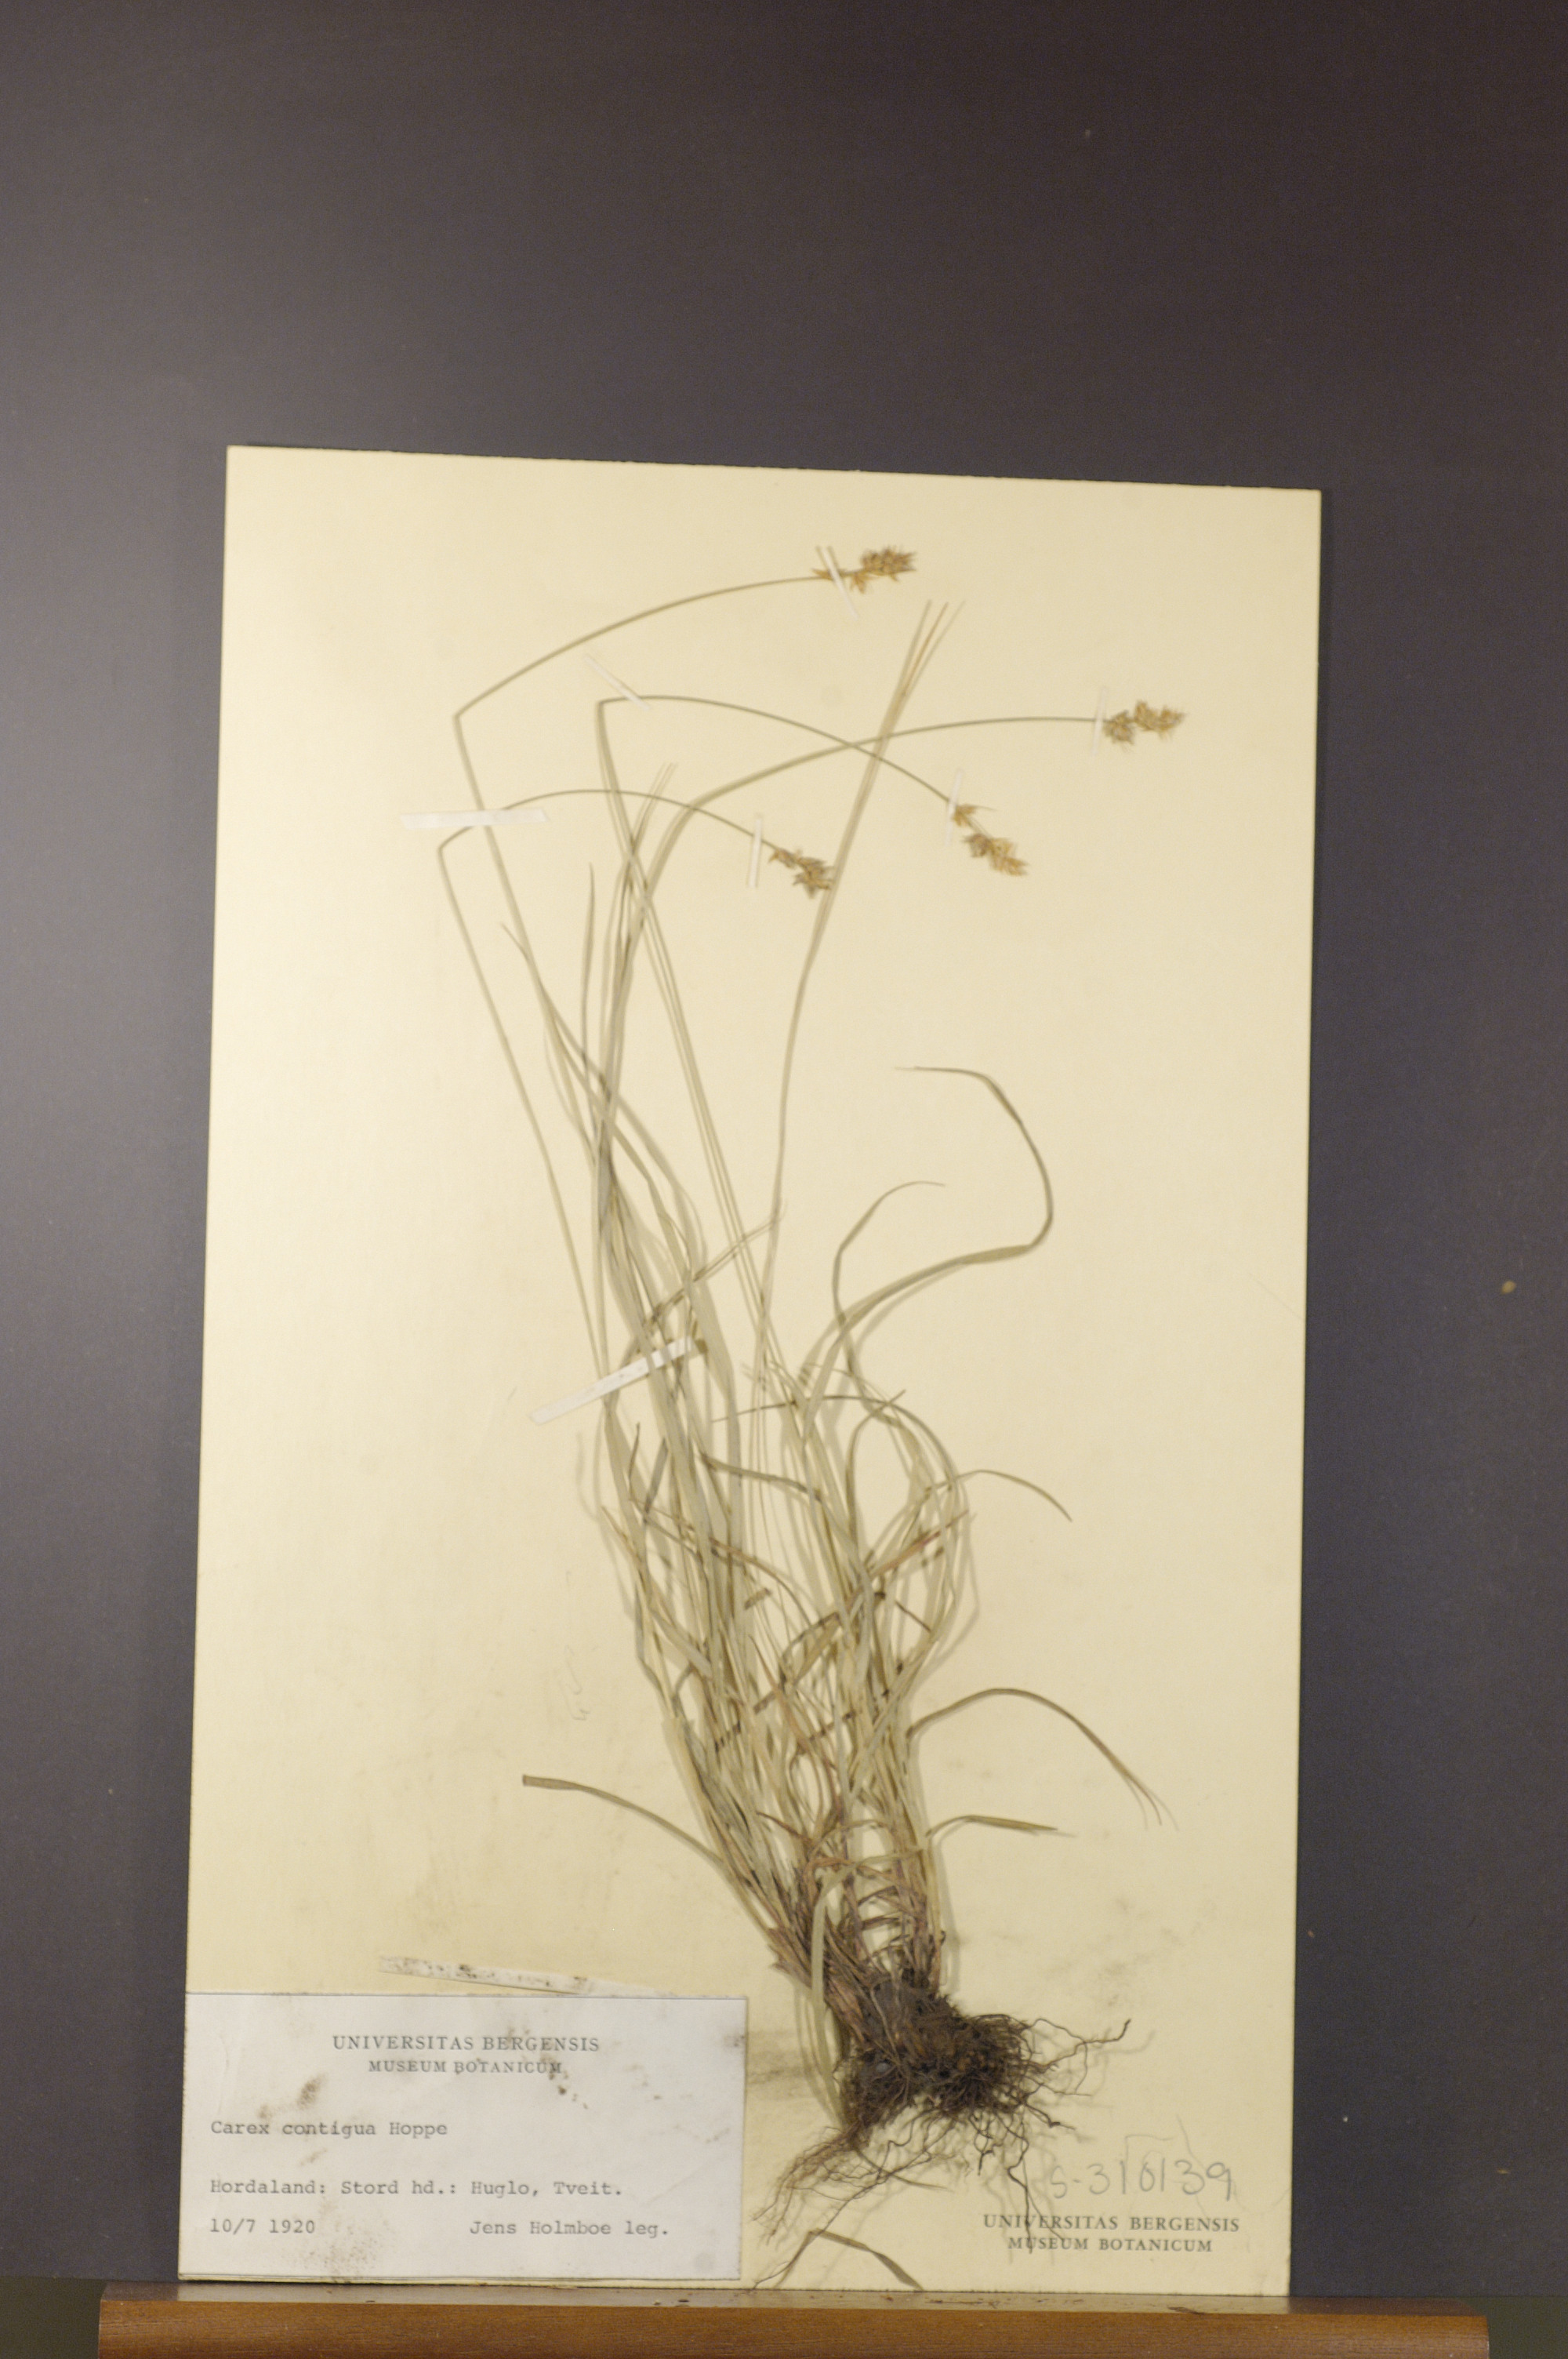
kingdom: Plantae
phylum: Tracheophyta
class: Liliopsida
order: Poales
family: Cyperaceae
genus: Carex
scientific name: Carex spicata
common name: Spiked sedge
